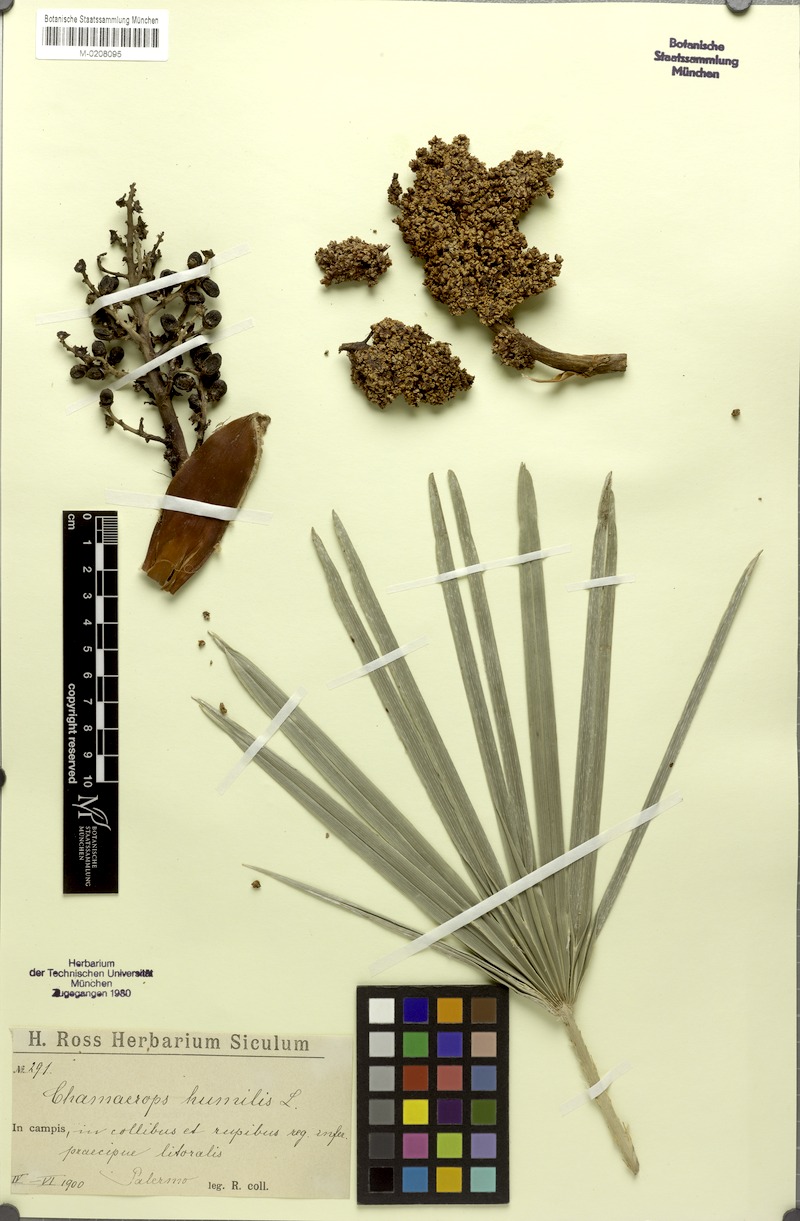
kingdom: Plantae
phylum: Tracheophyta
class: Liliopsida
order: Arecales
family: Arecaceae
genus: Chamaerops
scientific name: Chamaerops humilis
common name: Dwarf fan palm
